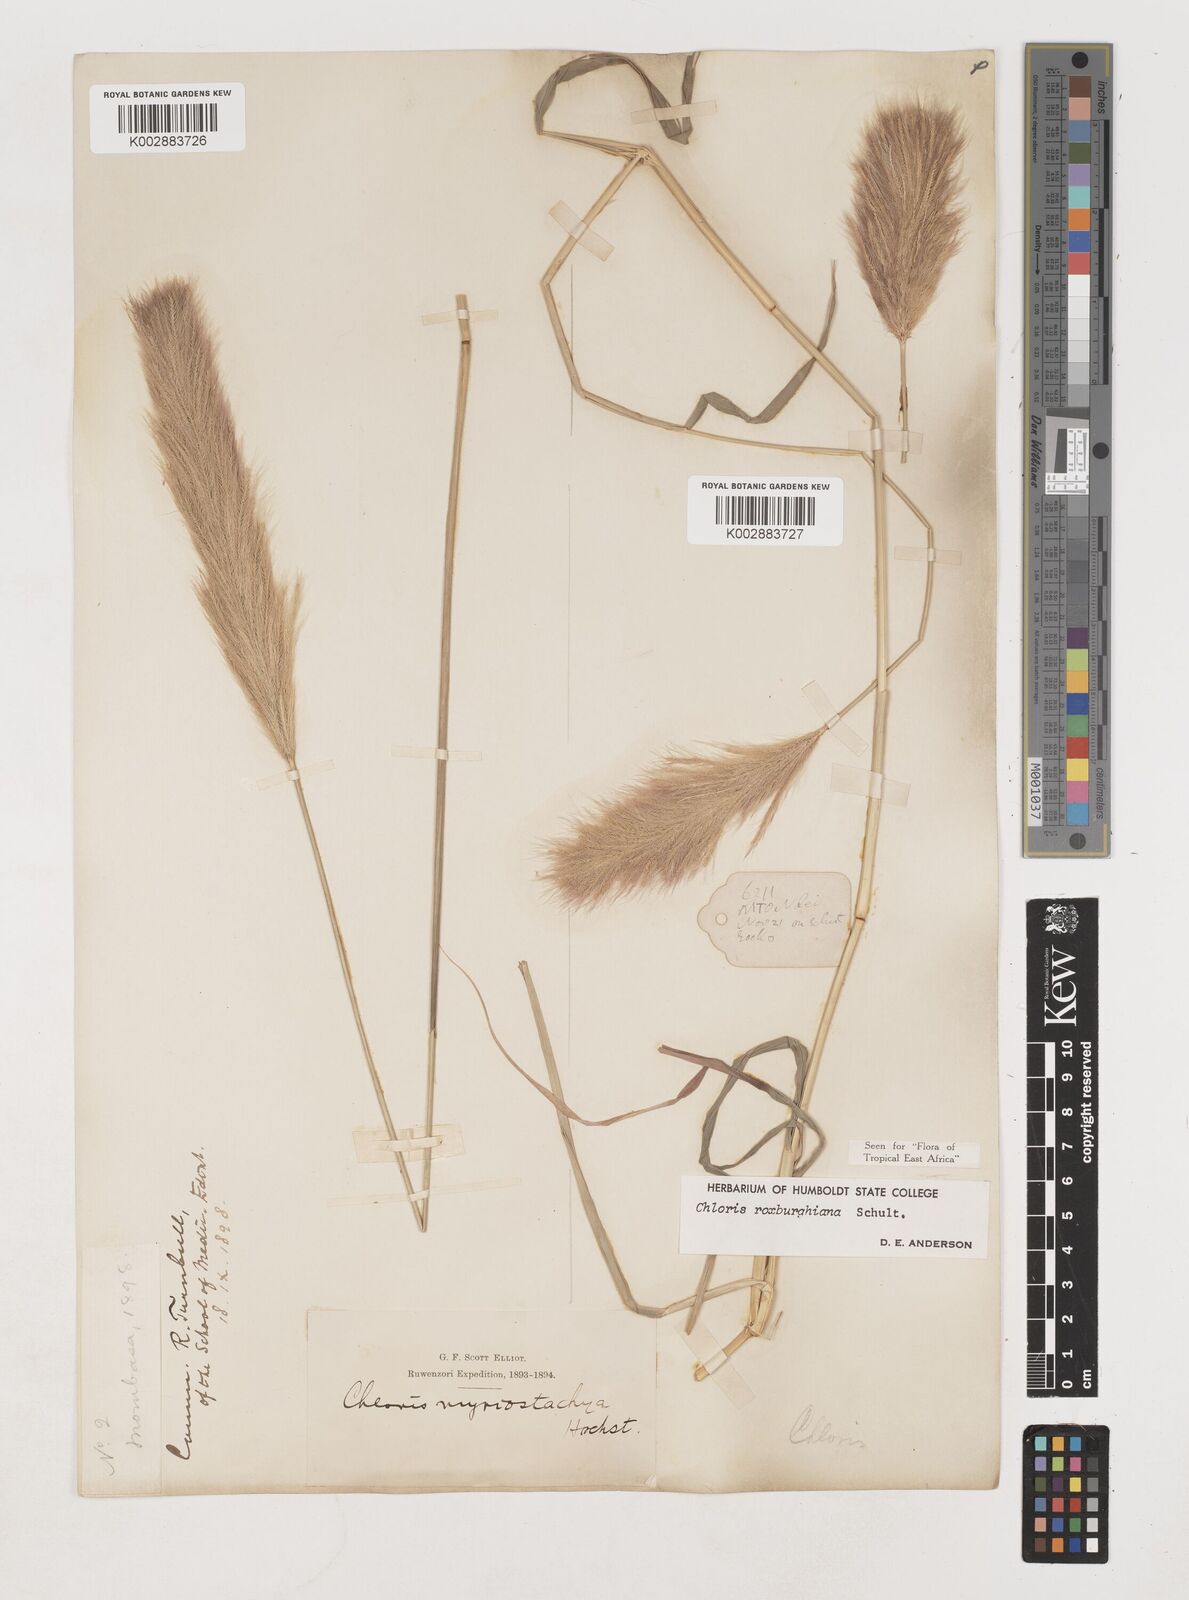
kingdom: Plantae
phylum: Tracheophyta
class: Liliopsida
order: Poales
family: Poaceae
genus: Tetrapogon
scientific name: Tetrapogon roxburghiana
